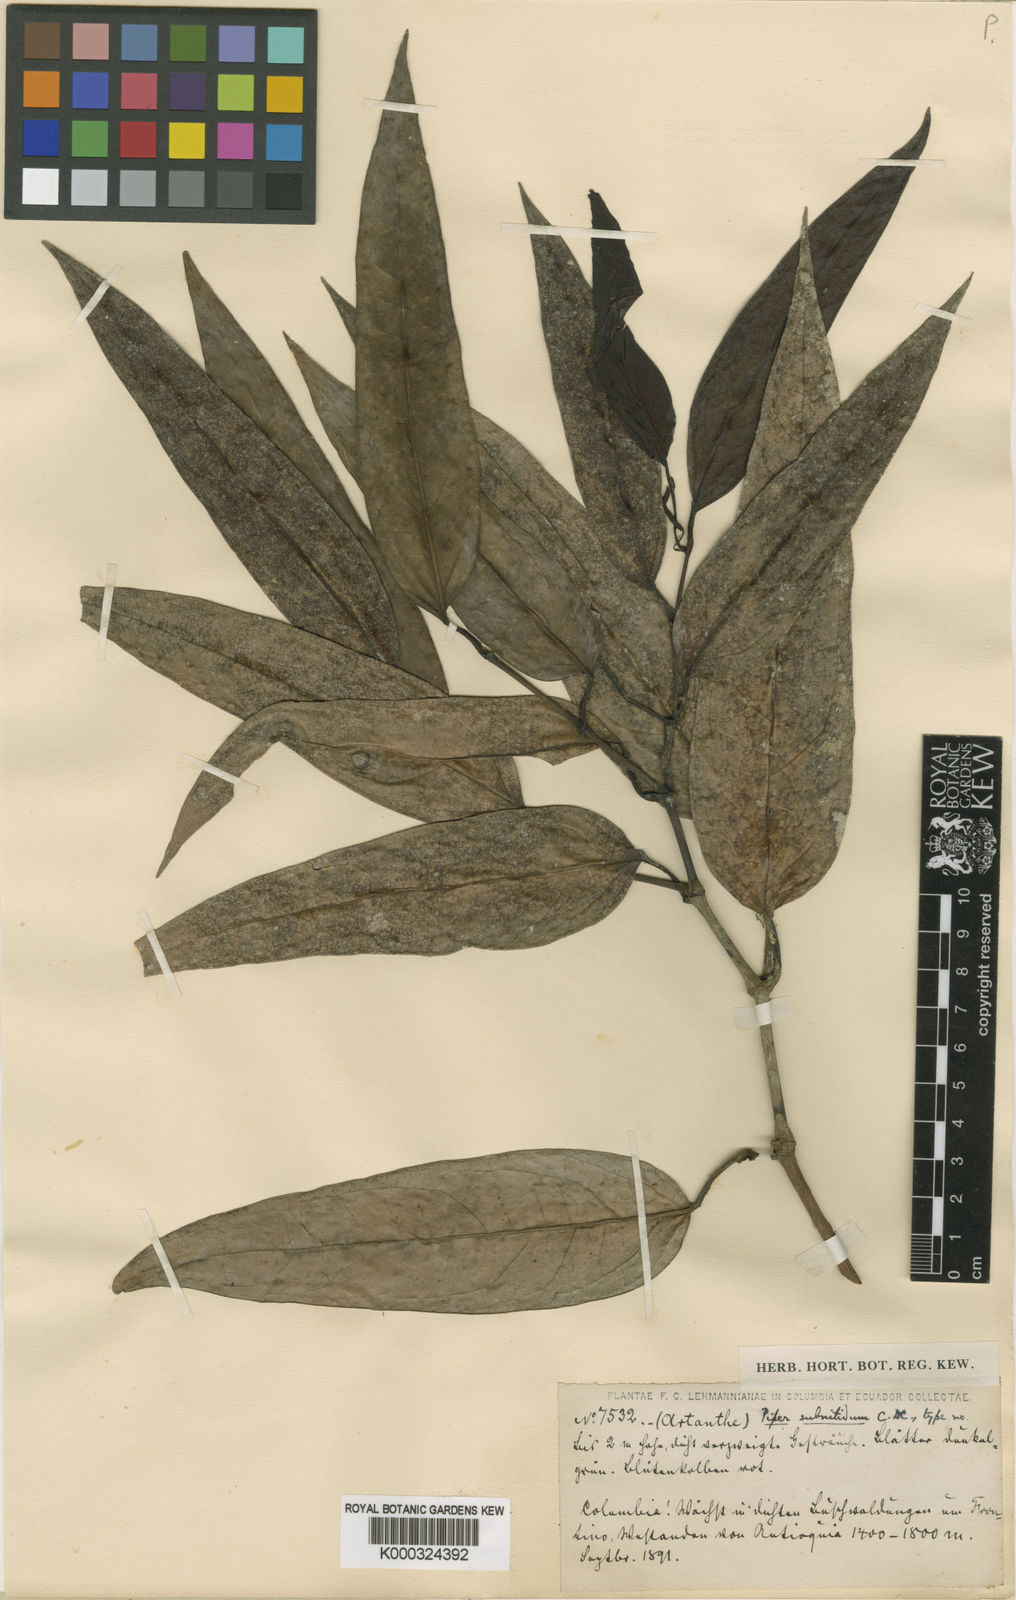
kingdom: Plantae
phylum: Tracheophyta
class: Magnoliopsida
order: Piperales
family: Piperaceae
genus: Piper
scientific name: Piper subnitidum
